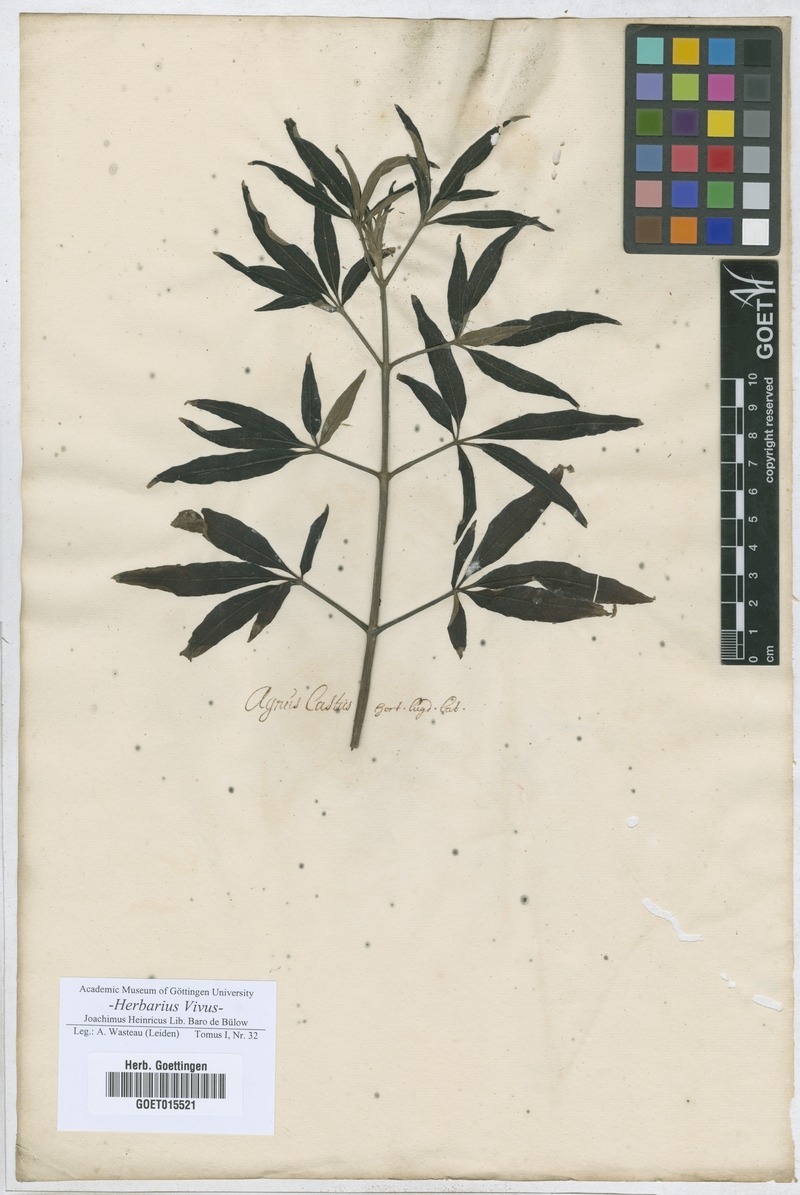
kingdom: Plantae
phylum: Tracheophyta
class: Magnoliopsida
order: Lamiales
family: Lamiaceae
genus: Vitex
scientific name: Vitex agnus-castus
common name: Chasteberry
